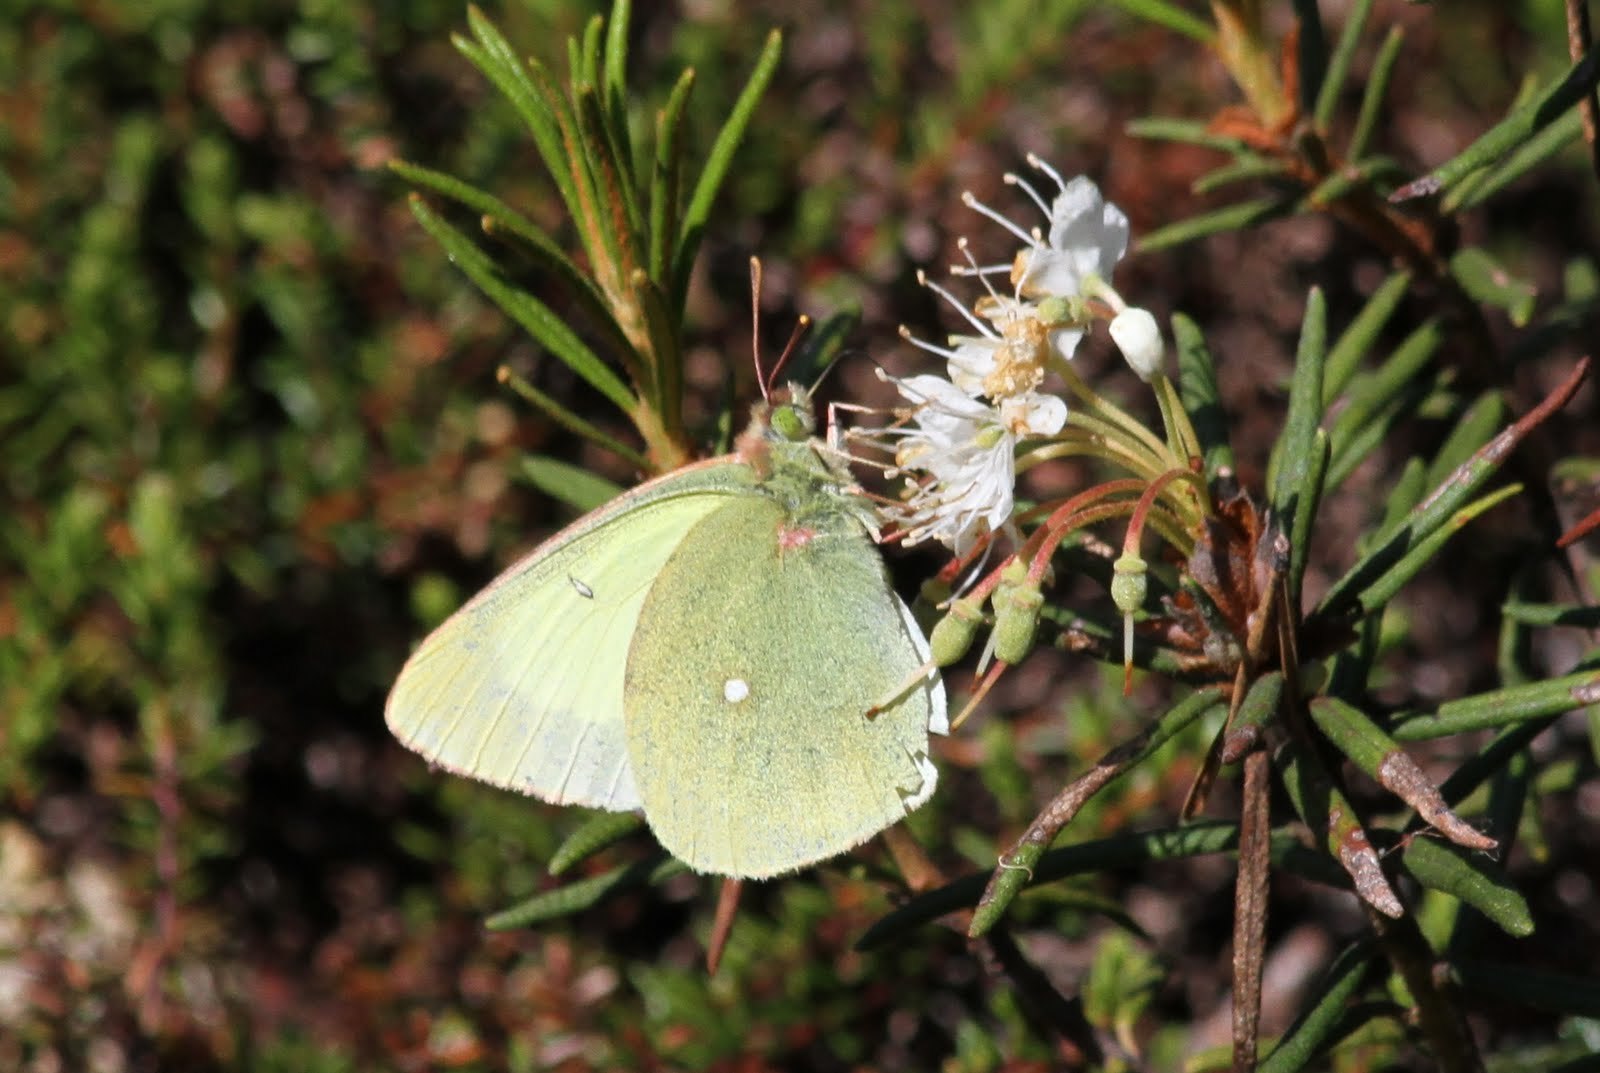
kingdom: Animalia
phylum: Arthropoda
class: Insecta
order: Lepidoptera
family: Pieridae
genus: Colias
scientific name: Colias palaeno
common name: Moorland clouded yellow
